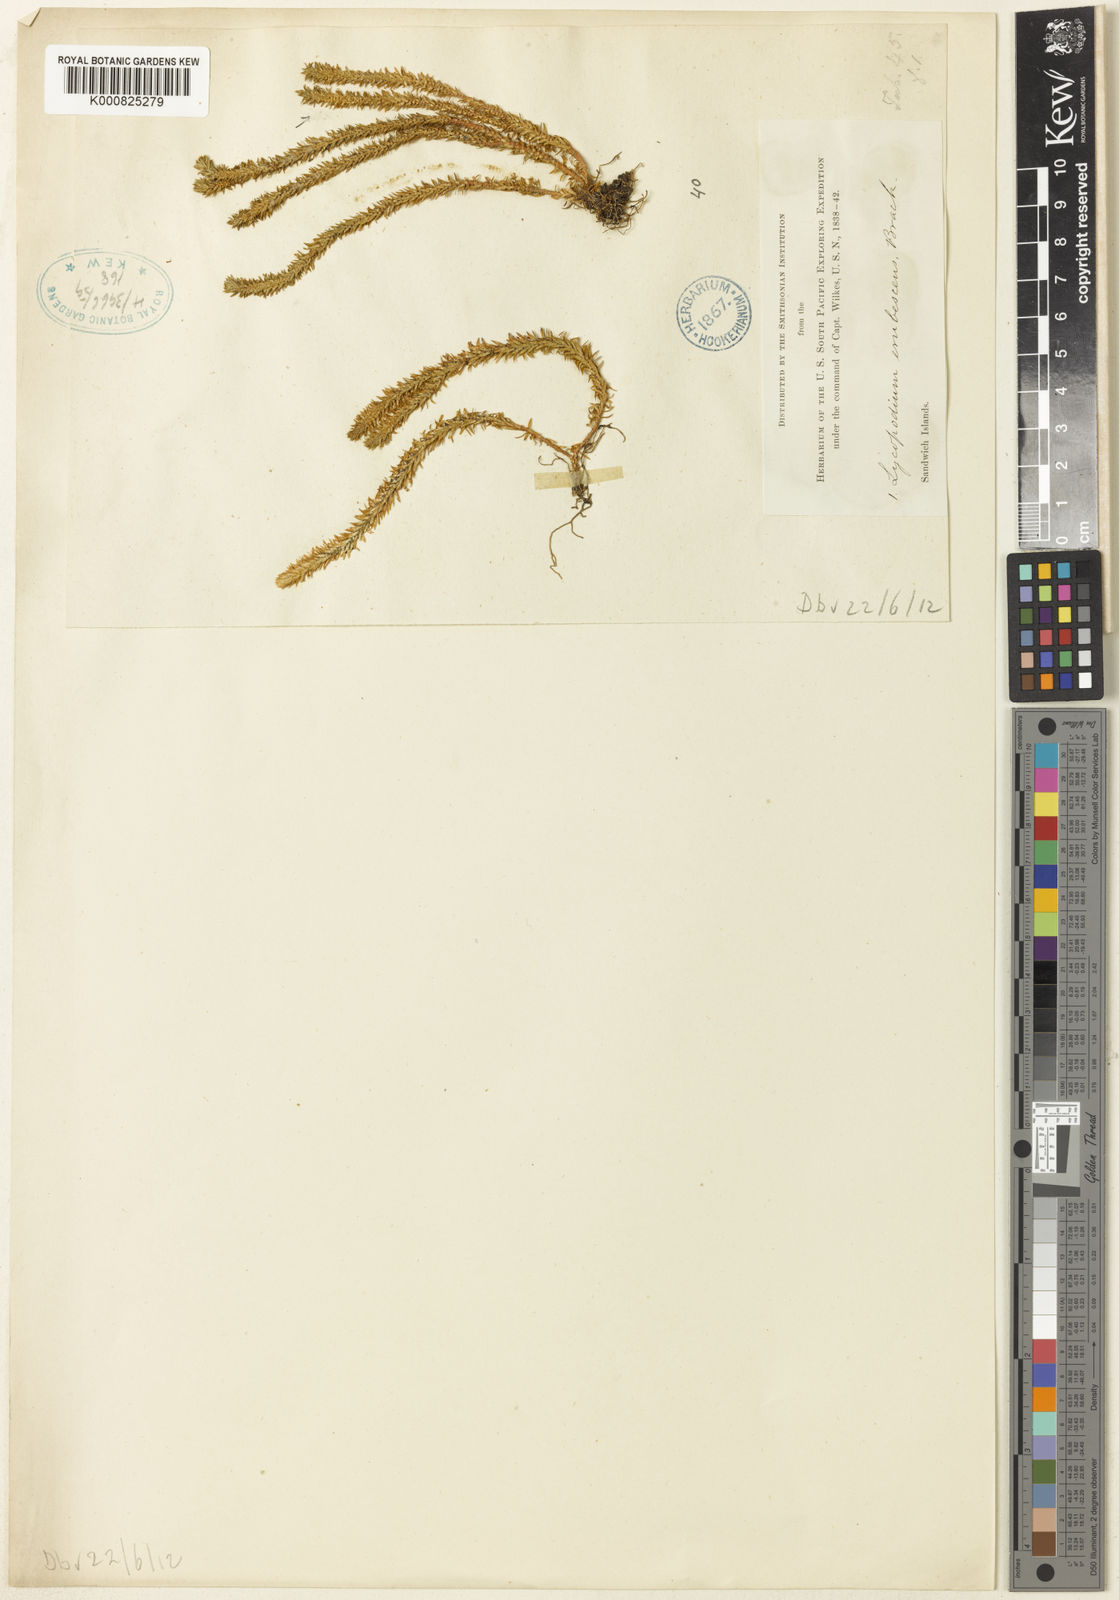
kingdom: Plantae
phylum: Tracheophyta
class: Lycopodiopsida
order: Lycopodiales
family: Lycopodiaceae
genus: Lycopodium
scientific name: Lycopodium
